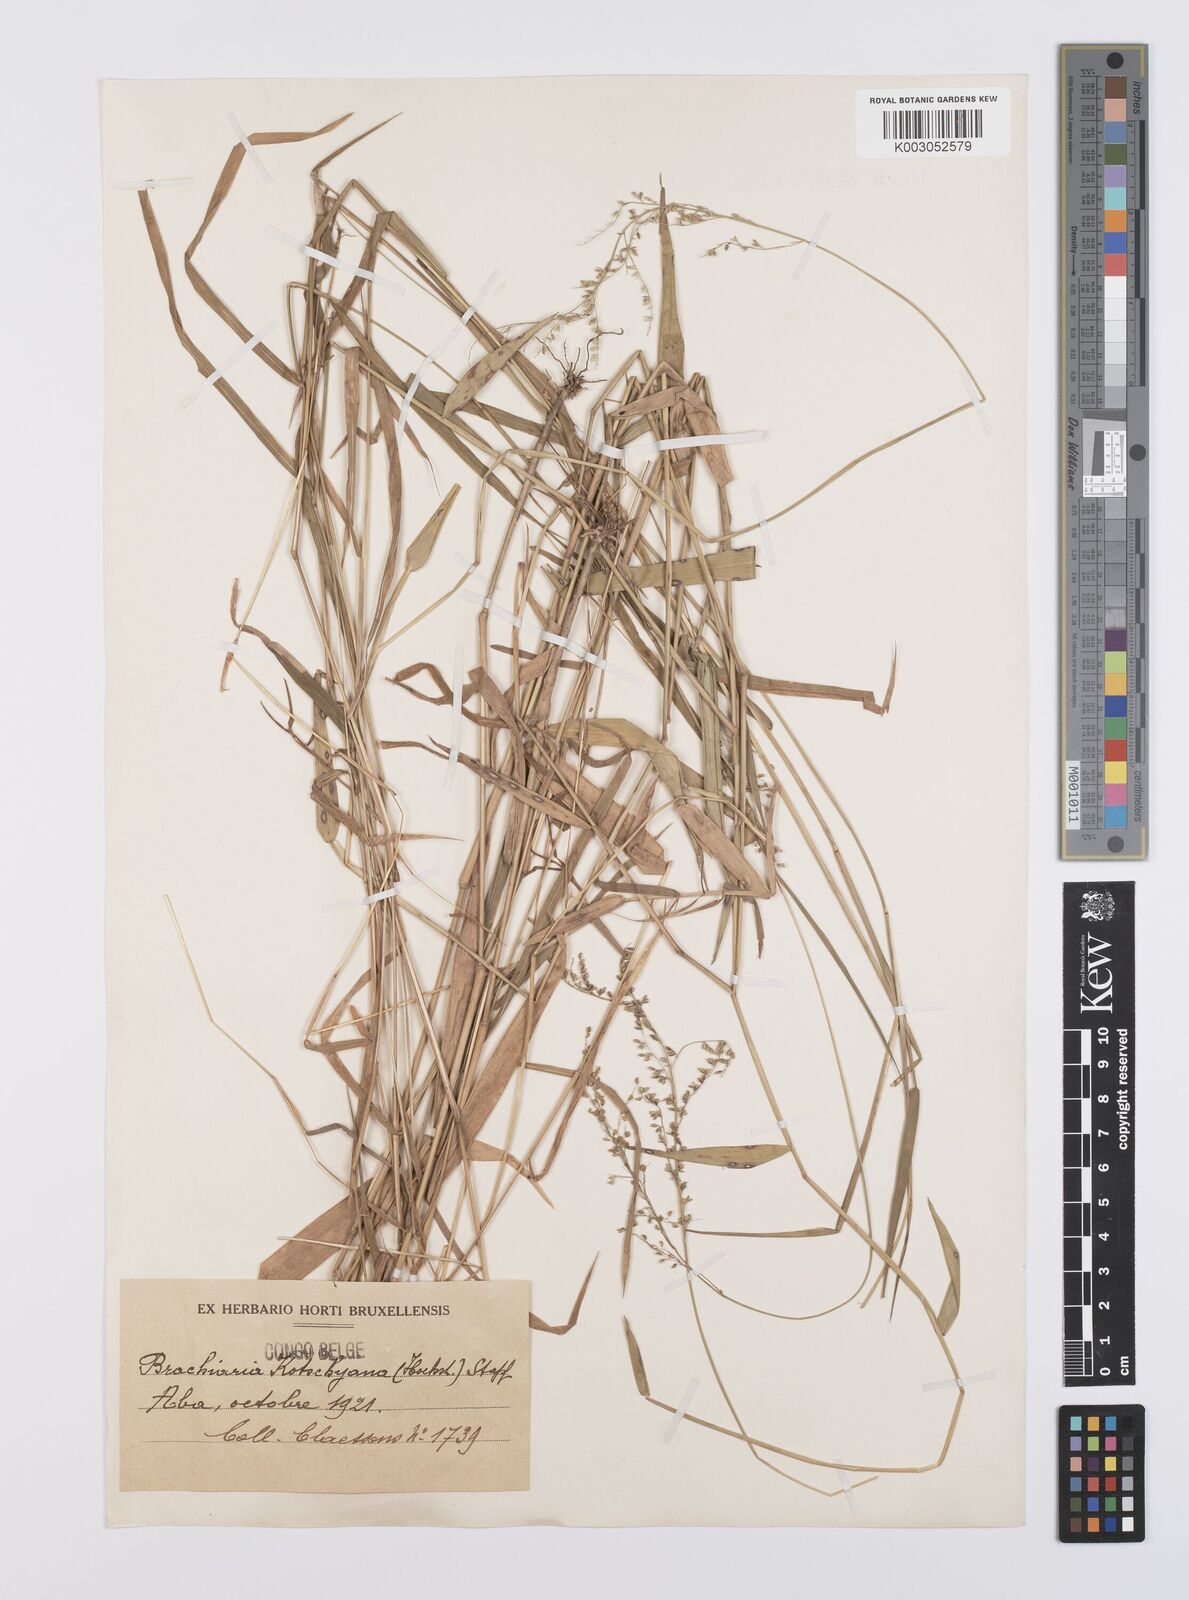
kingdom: Plantae
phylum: Tracheophyta
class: Liliopsida
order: Poales
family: Poaceae
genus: Urochloa
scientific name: Urochloa comata
